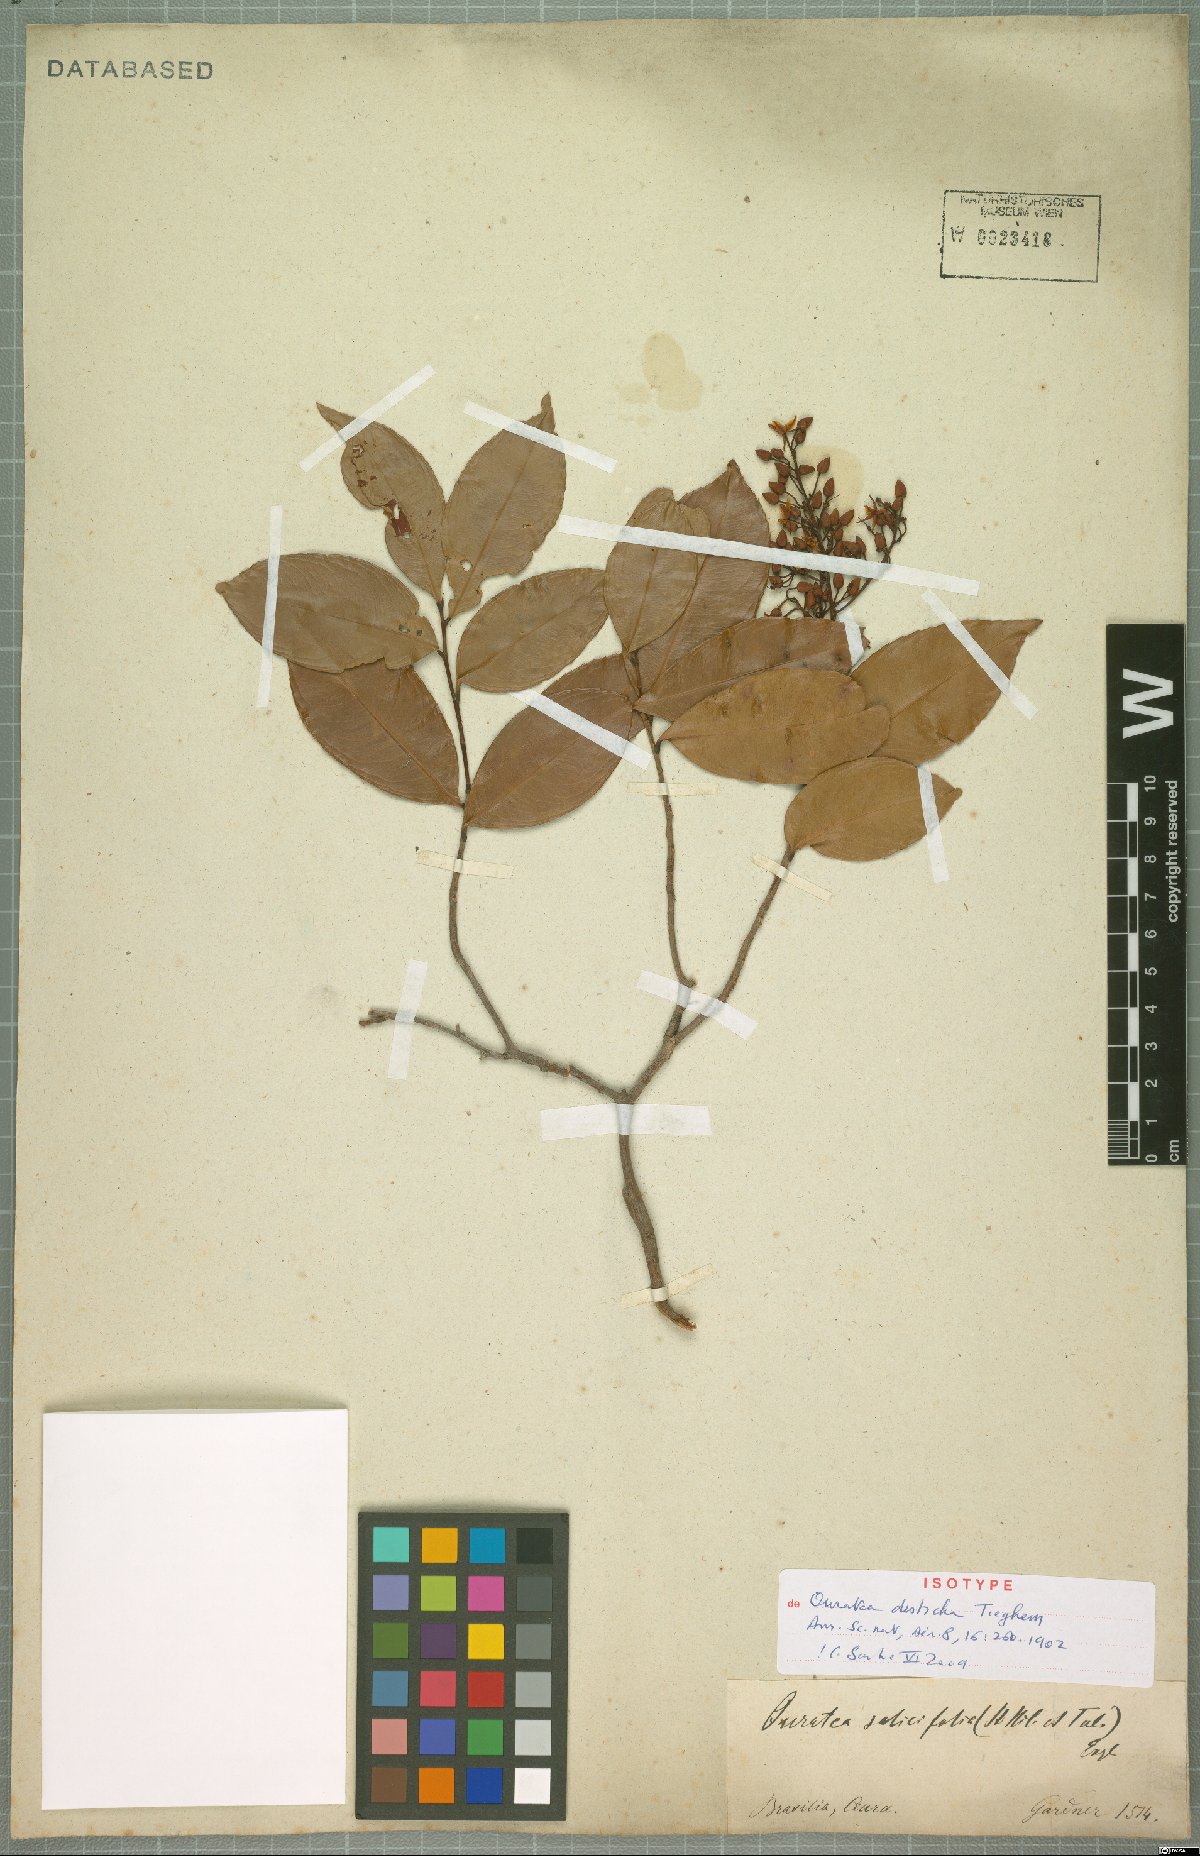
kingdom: Plantae
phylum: Tracheophyta
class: Magnoliopsida
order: Malpighiales
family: Ochnaceae
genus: Ouratea
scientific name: Ouratea disticha
